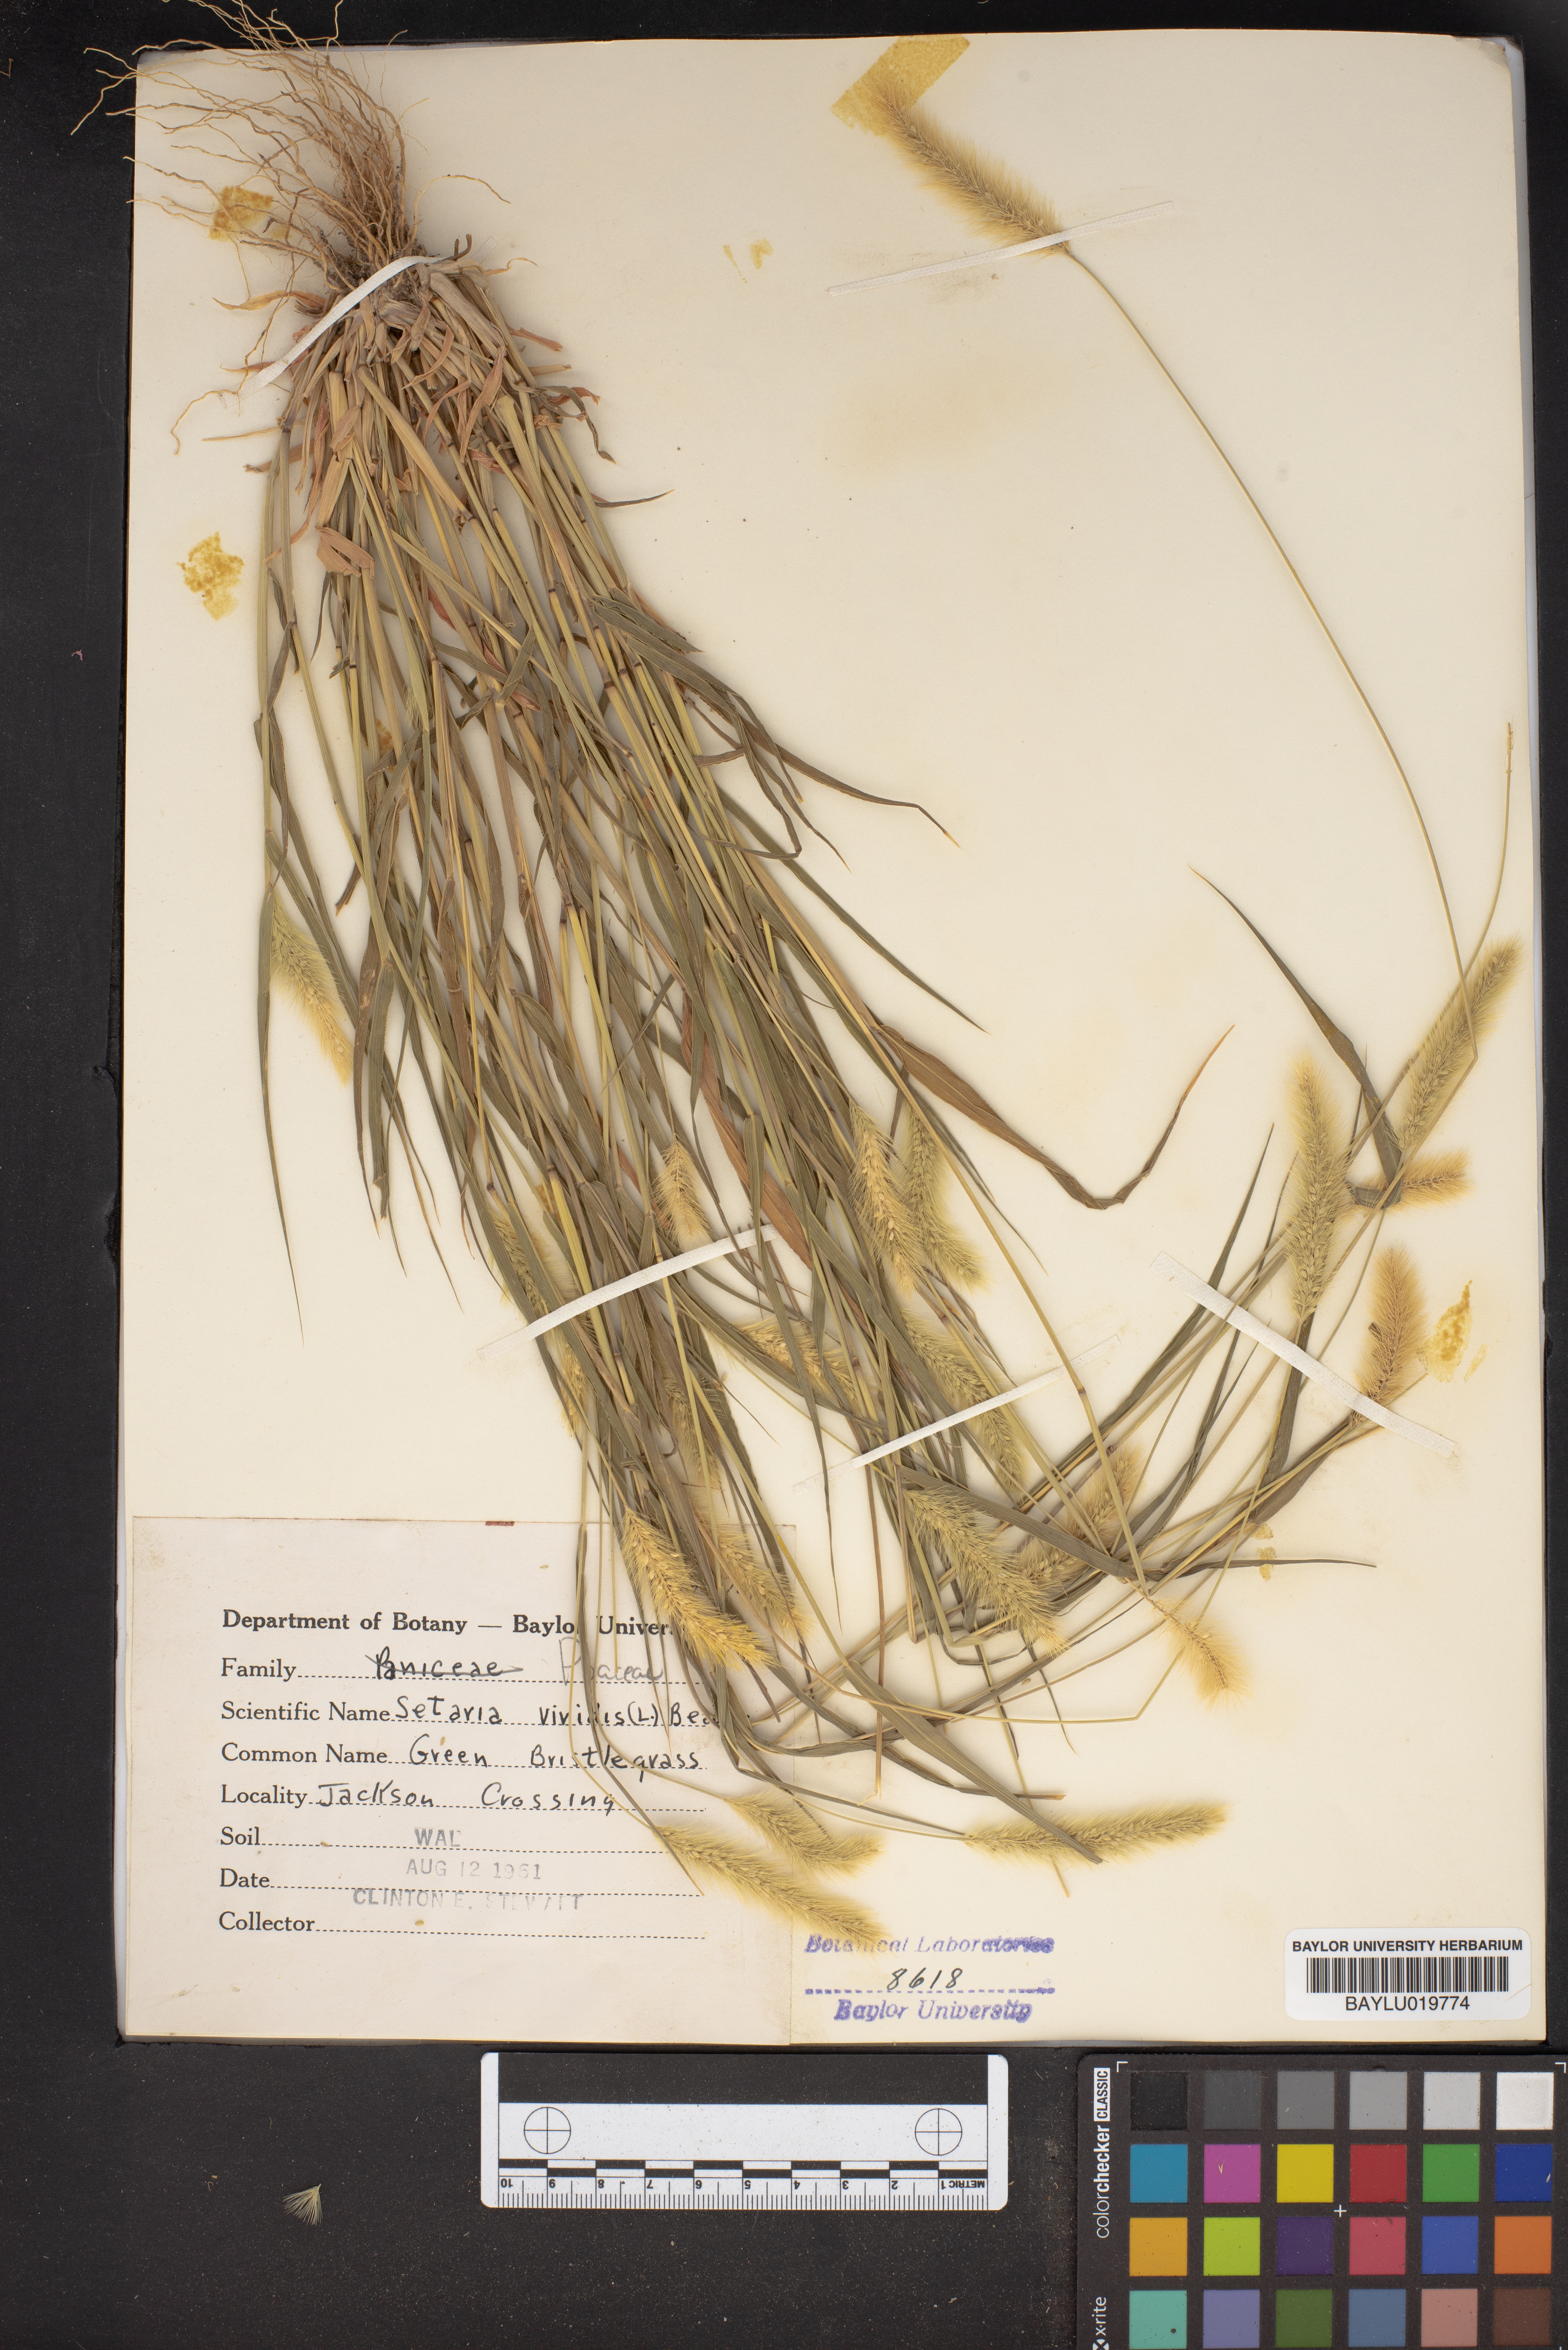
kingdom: Plantae
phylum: Tracheophyta
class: Liliopsida
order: Poales
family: Poaceae
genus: Setaria
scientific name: Setaria viridis
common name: Green bristlegrass
